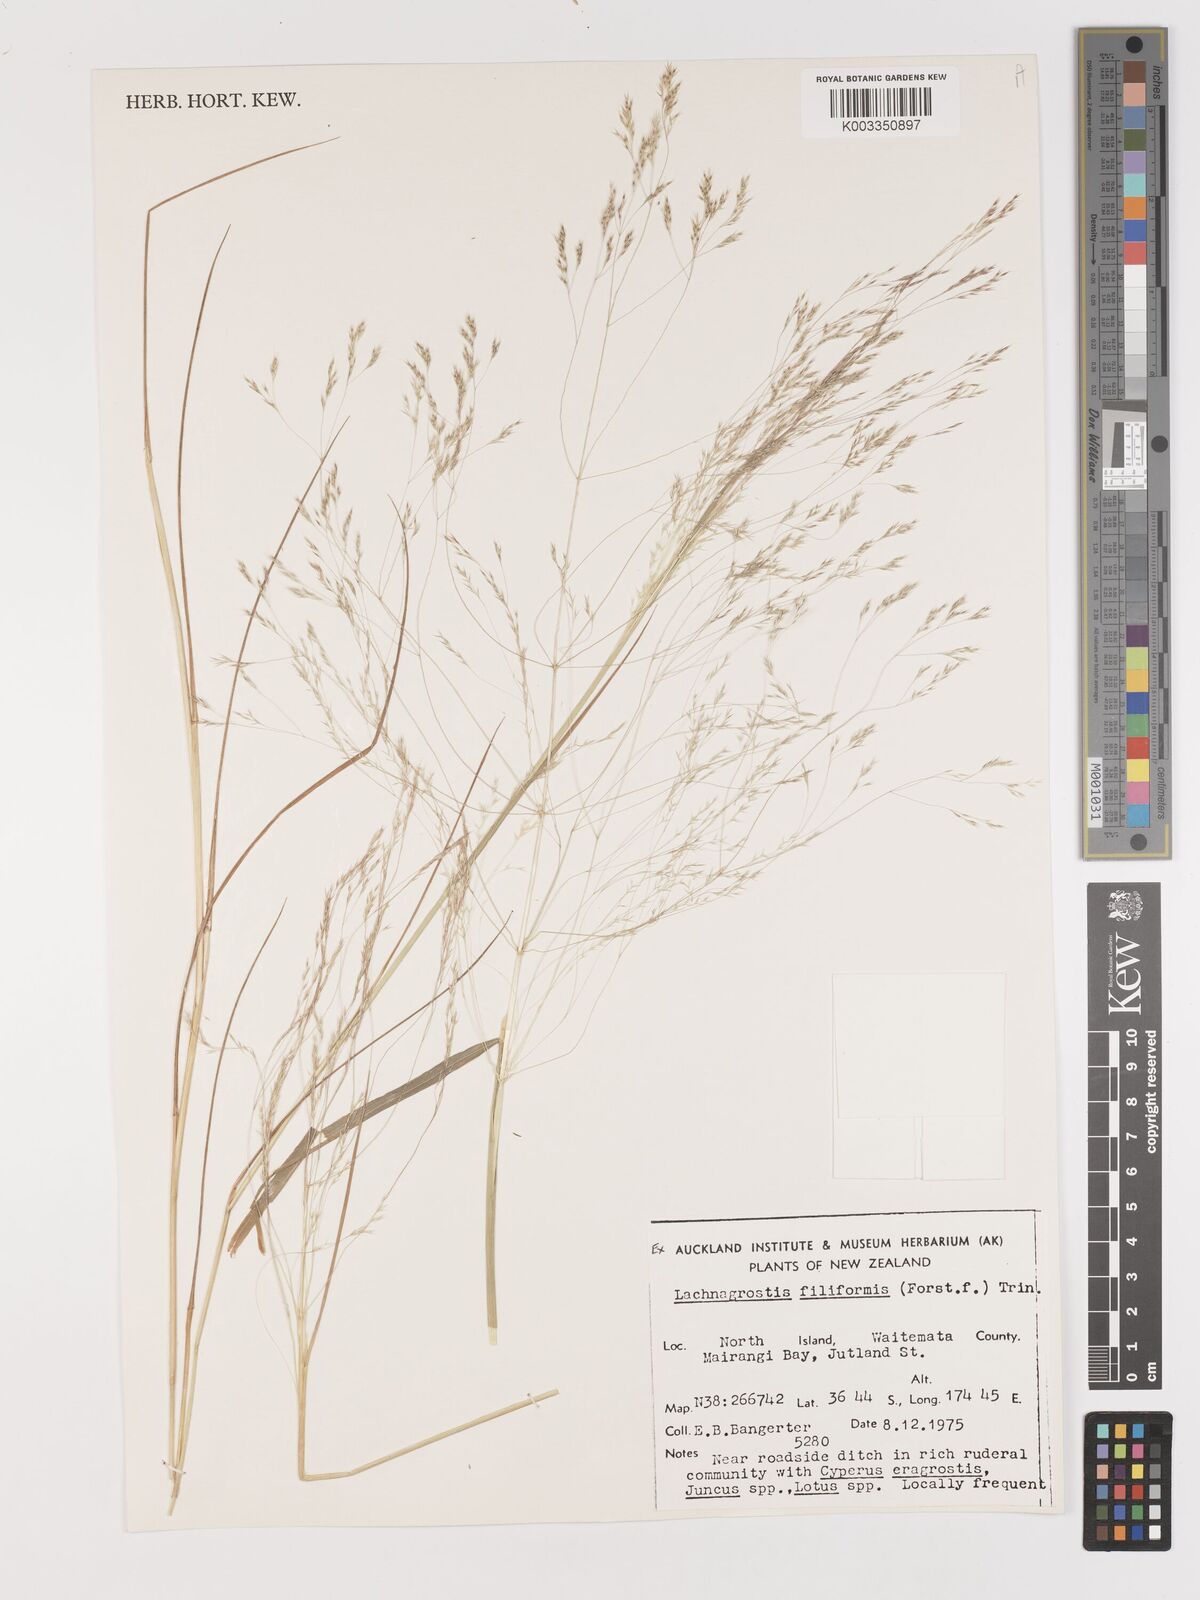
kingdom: Plantae
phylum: Tracheophyta
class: Liliopsida
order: Poales
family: Poaceae
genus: Lachnagrostis
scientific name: Lachnagrostis filiformis
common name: Bentgrass
